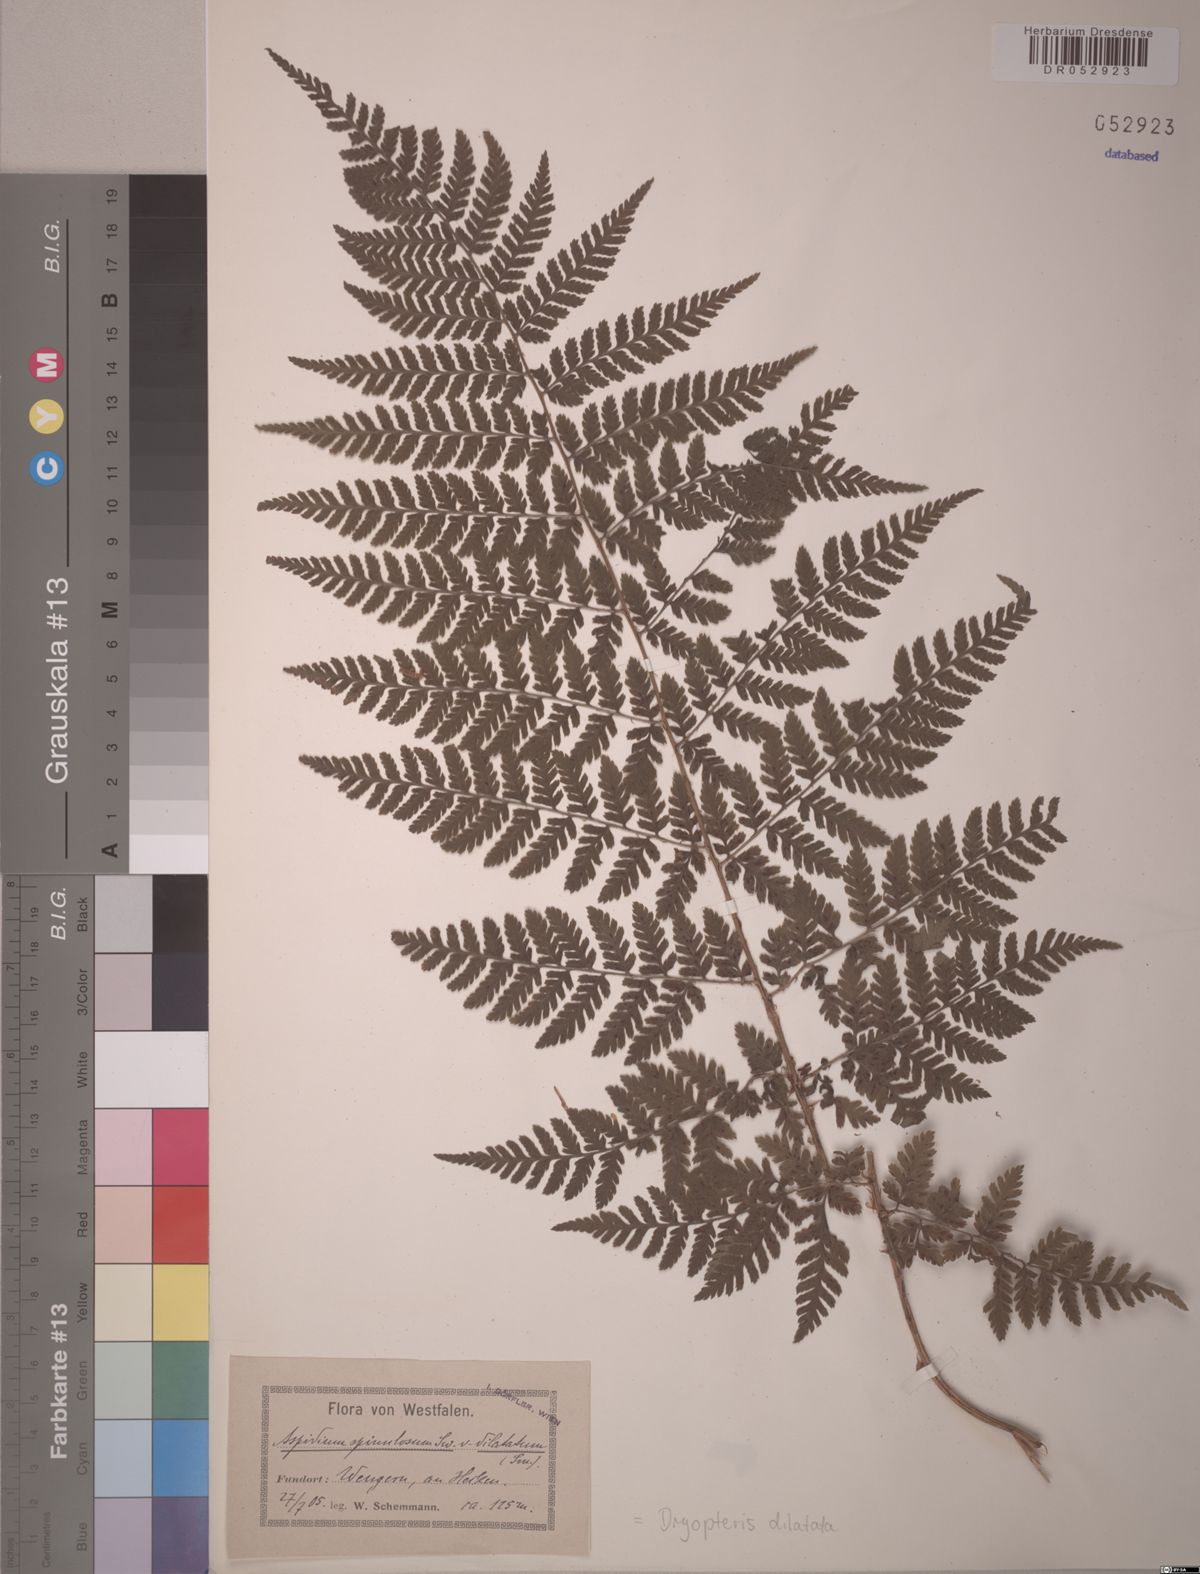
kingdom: Plantae
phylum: Tracheophyta
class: Polypodiopsida
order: Polypodiales
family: Dryopteridaceae
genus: Dryopteris
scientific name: Dryopteris dilatata
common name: Broad buckler-fern
